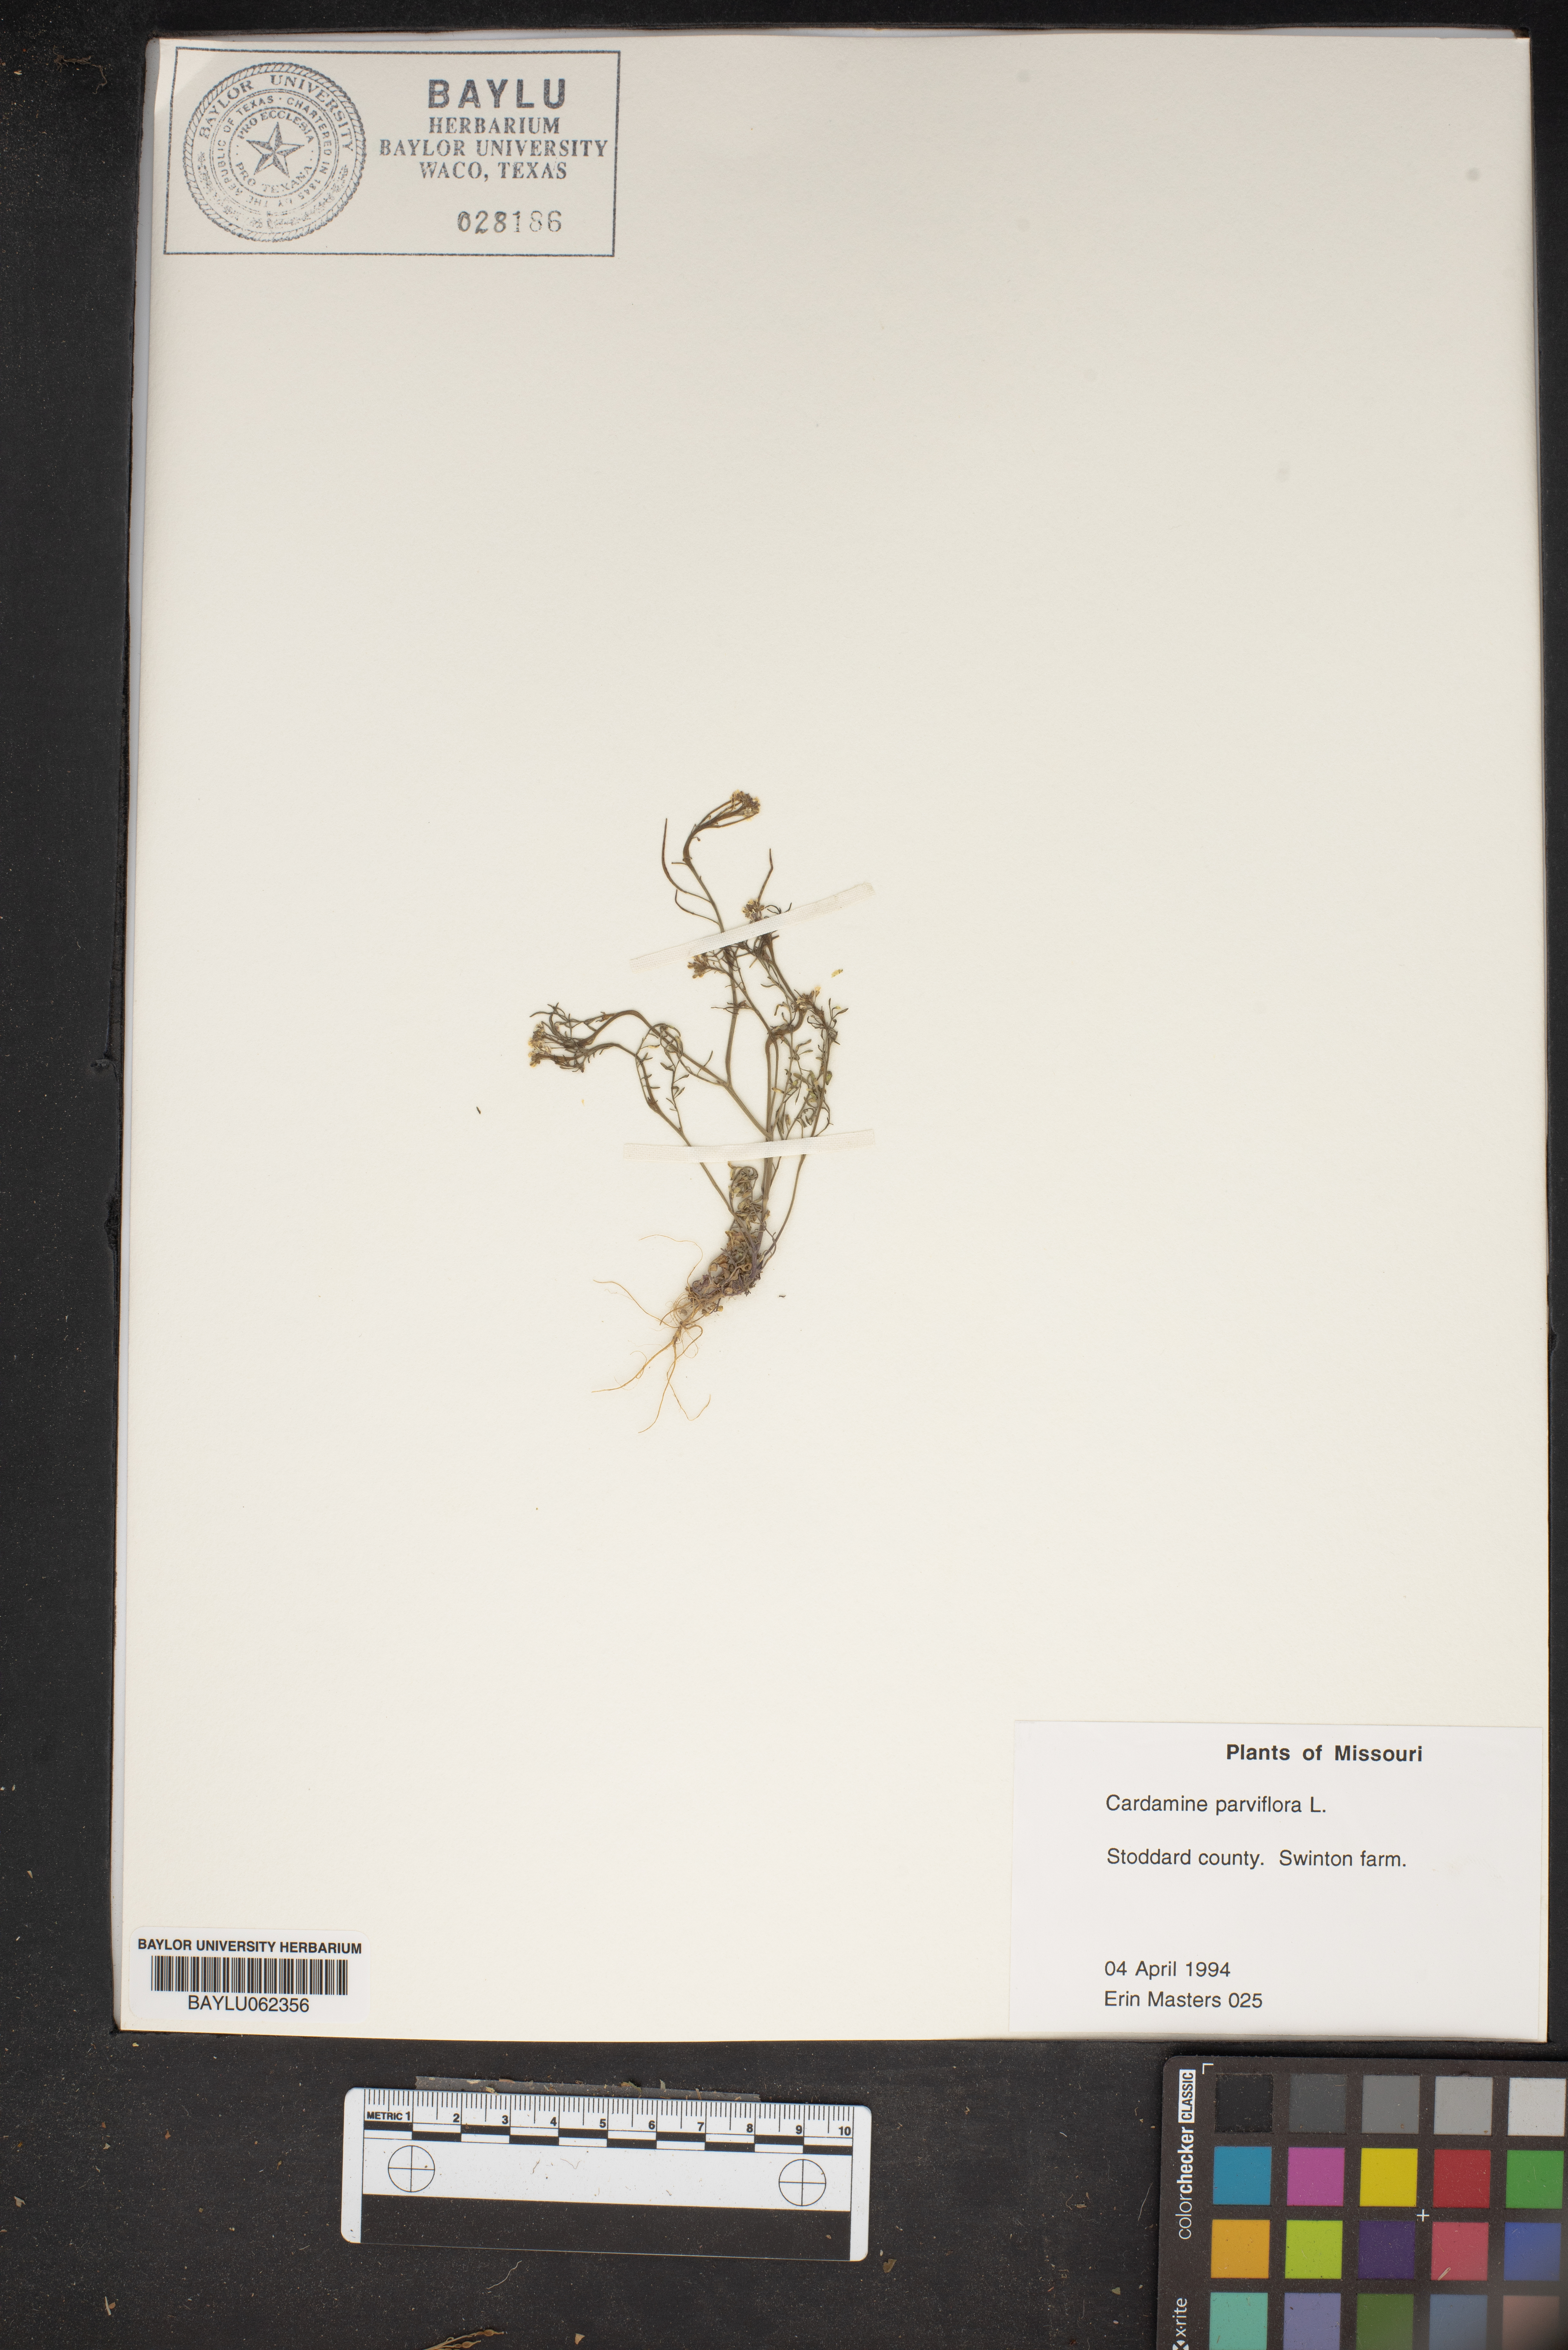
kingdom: Plantae
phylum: Tracheophyta
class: Magnoliopsida
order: Brassicales
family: Brassicaceae
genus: Cardamine
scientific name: Cardamine parviflora
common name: Sand bittercress
